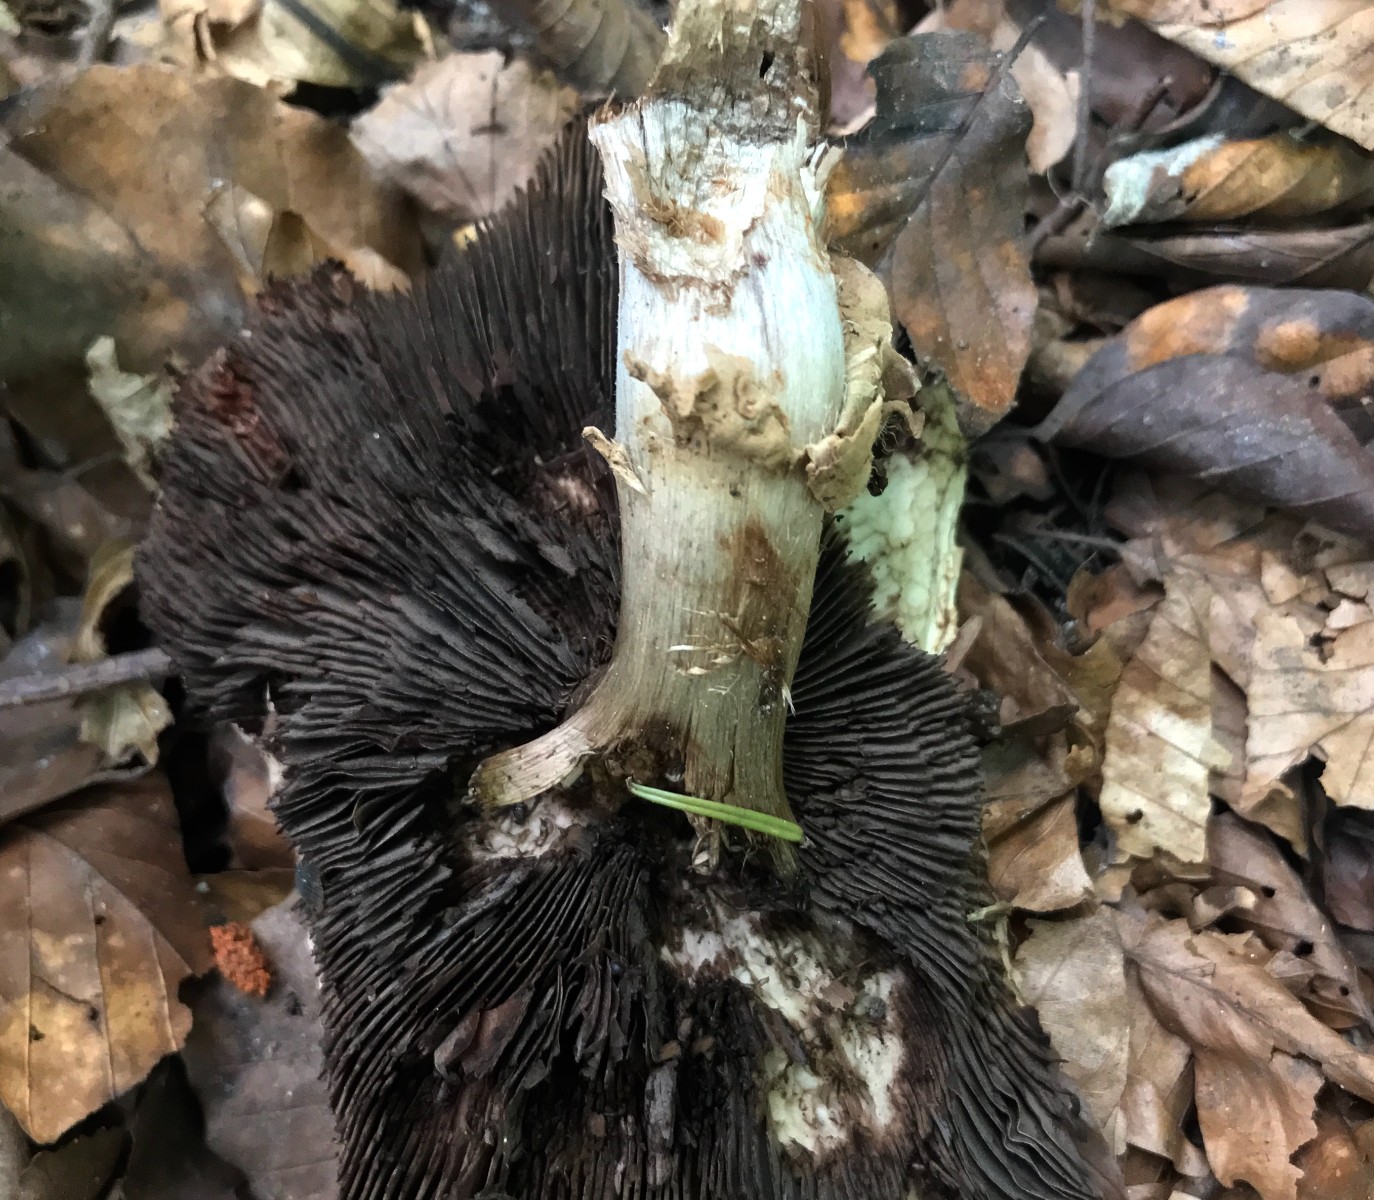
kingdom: Fungi
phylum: Basidiomycota
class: Agaricomycetes
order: Agaricales
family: Agaricaceae
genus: Agaricus
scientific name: Agaricus
